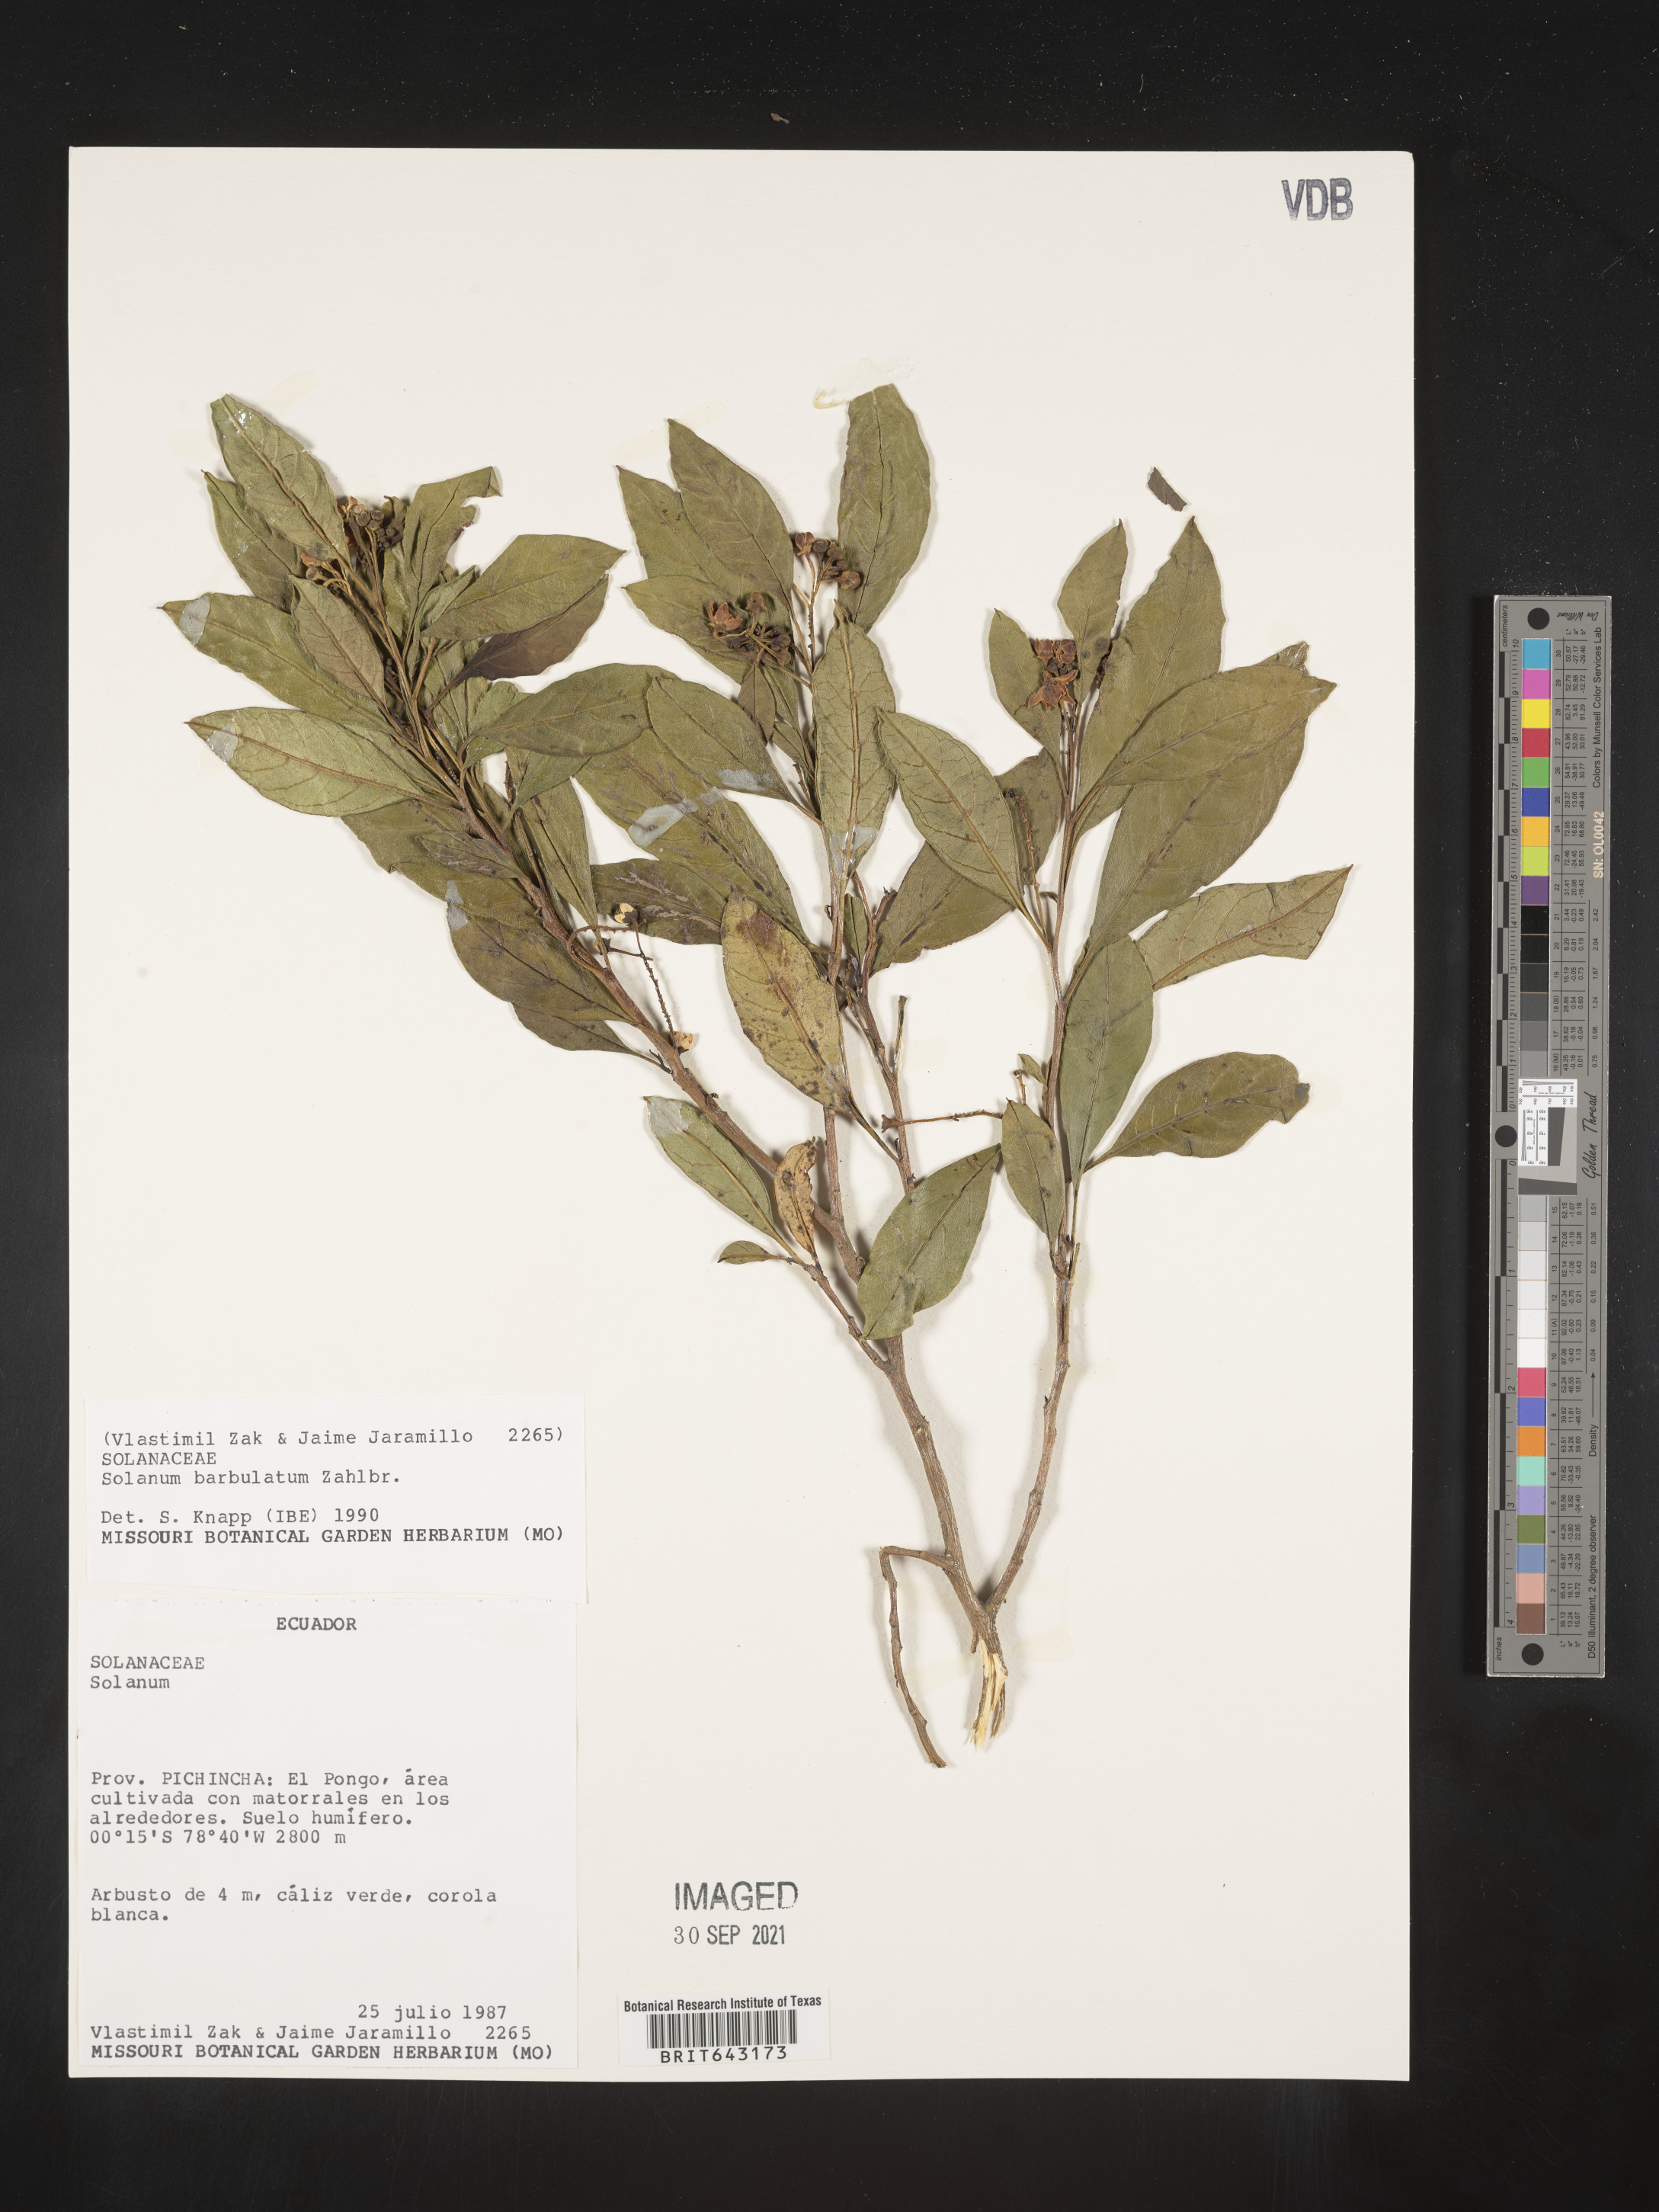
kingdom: Plantae
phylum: Tracheophyta
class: Magnoliopsida
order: Solanales
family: Solanaceae
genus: Solanum
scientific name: Solanum
